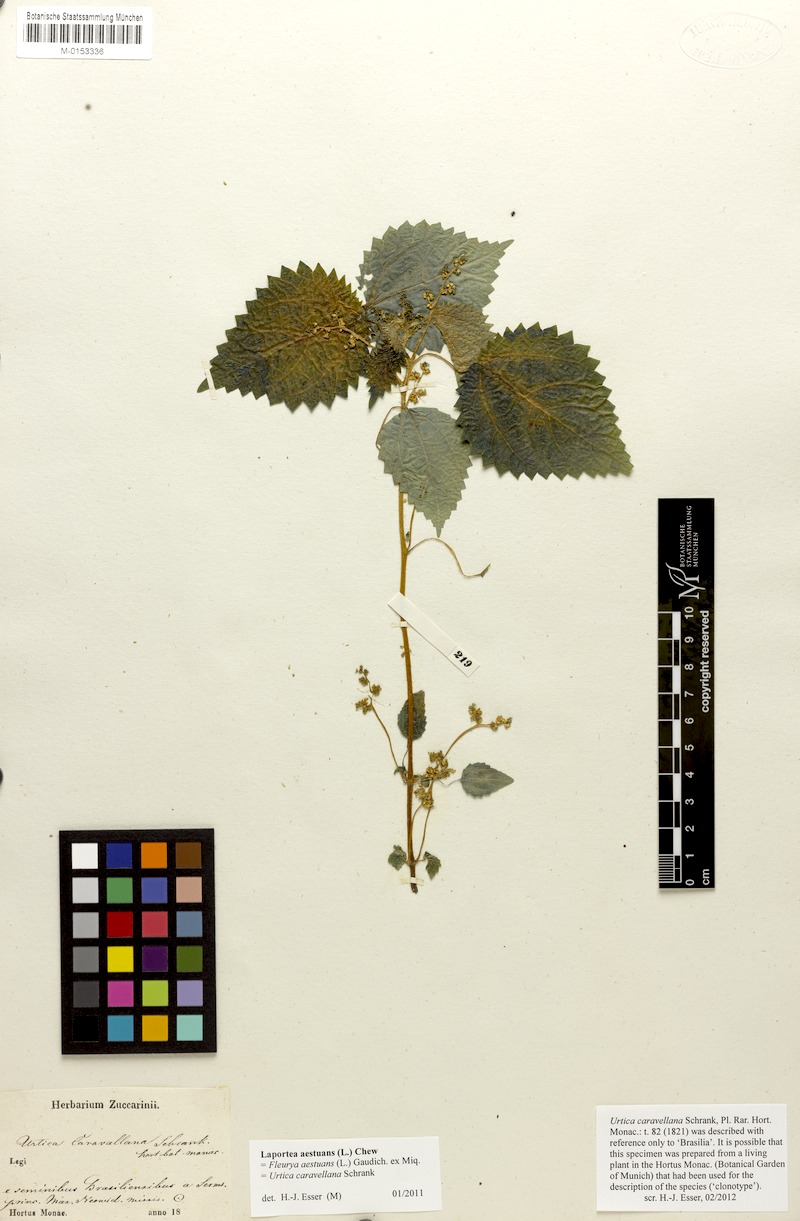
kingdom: Plantae
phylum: Tracheophyta
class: Magnoliopsida
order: Rosales
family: Urticaceae
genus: Laportea
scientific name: Laportea aestuans
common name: West indian woodnettle
